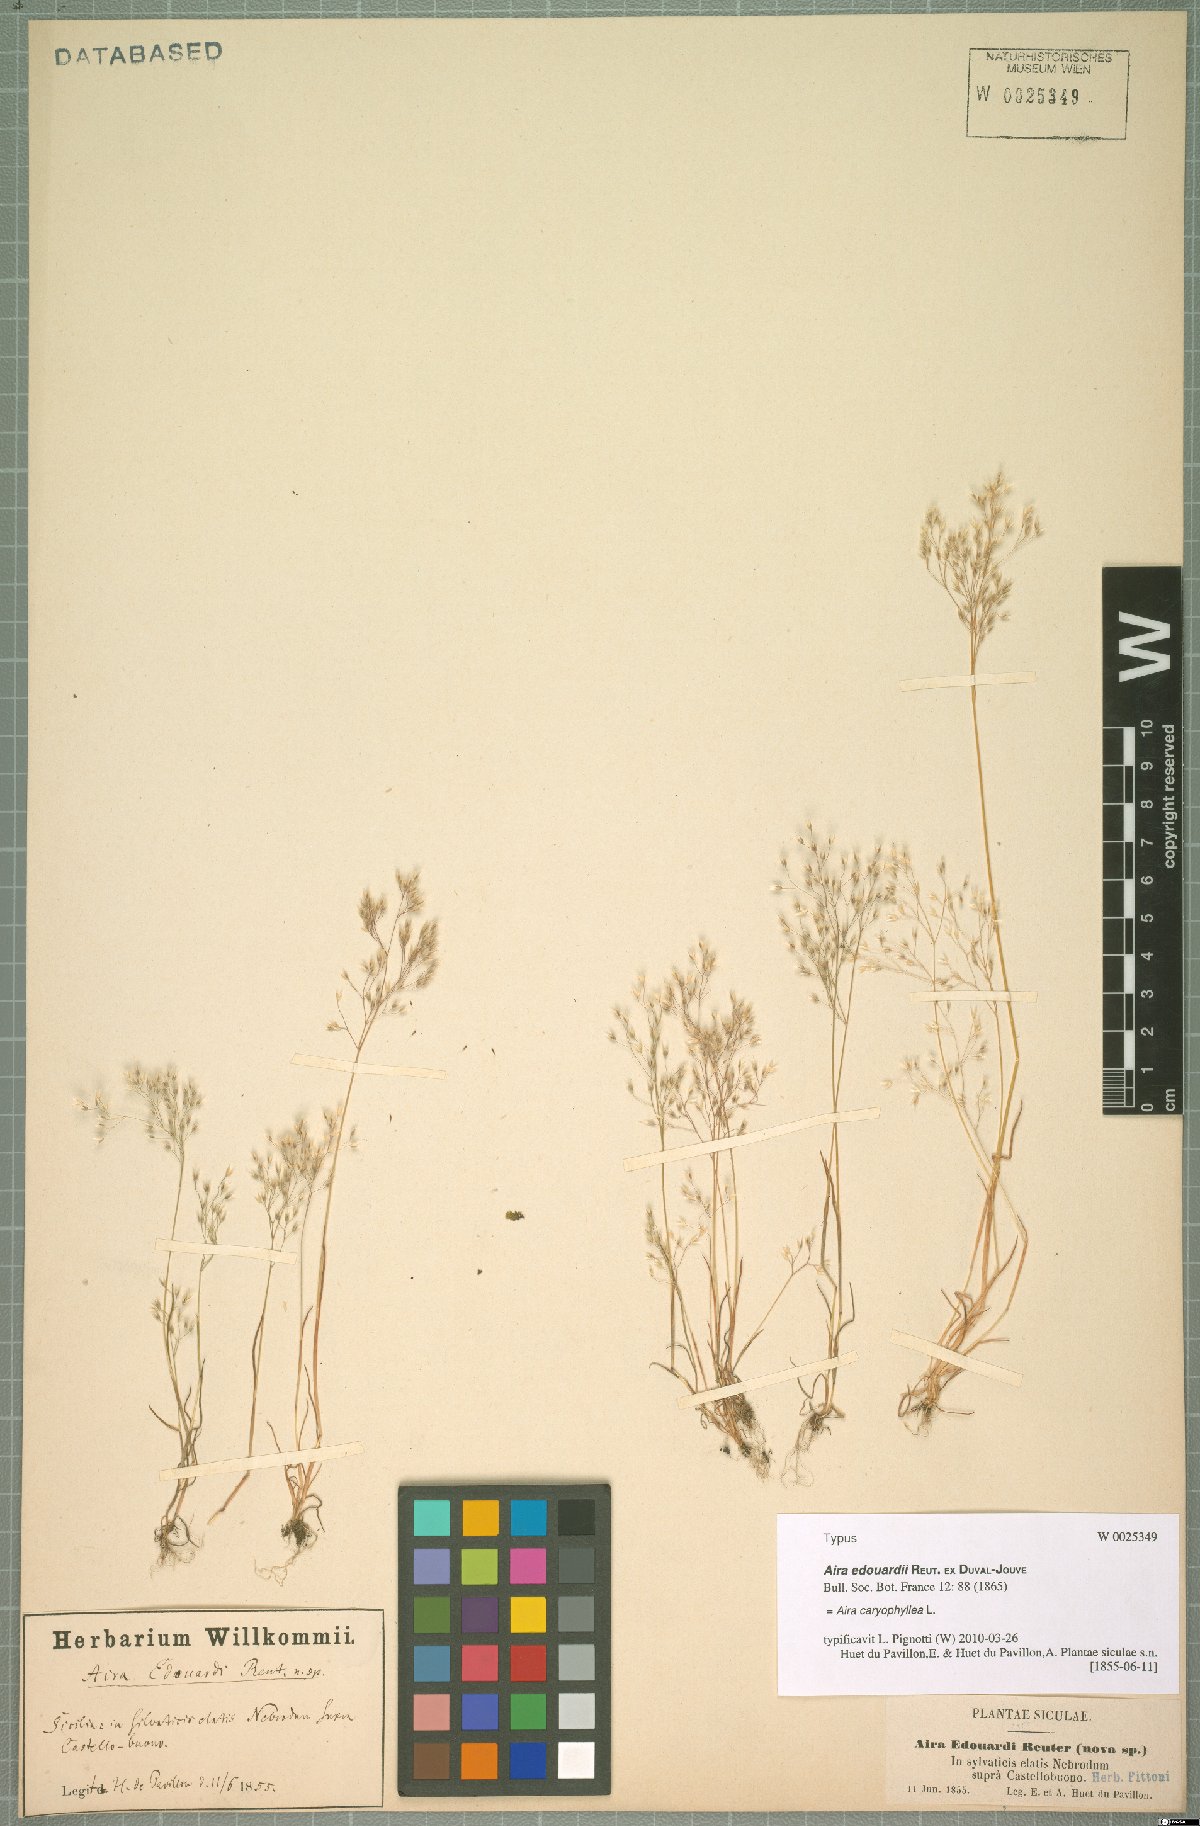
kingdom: Plantae
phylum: Tracheophyta
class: Liliopsida
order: Poales
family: Poaceae
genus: Aira
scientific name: Aira caryophyllea
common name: Silver hairgrass
